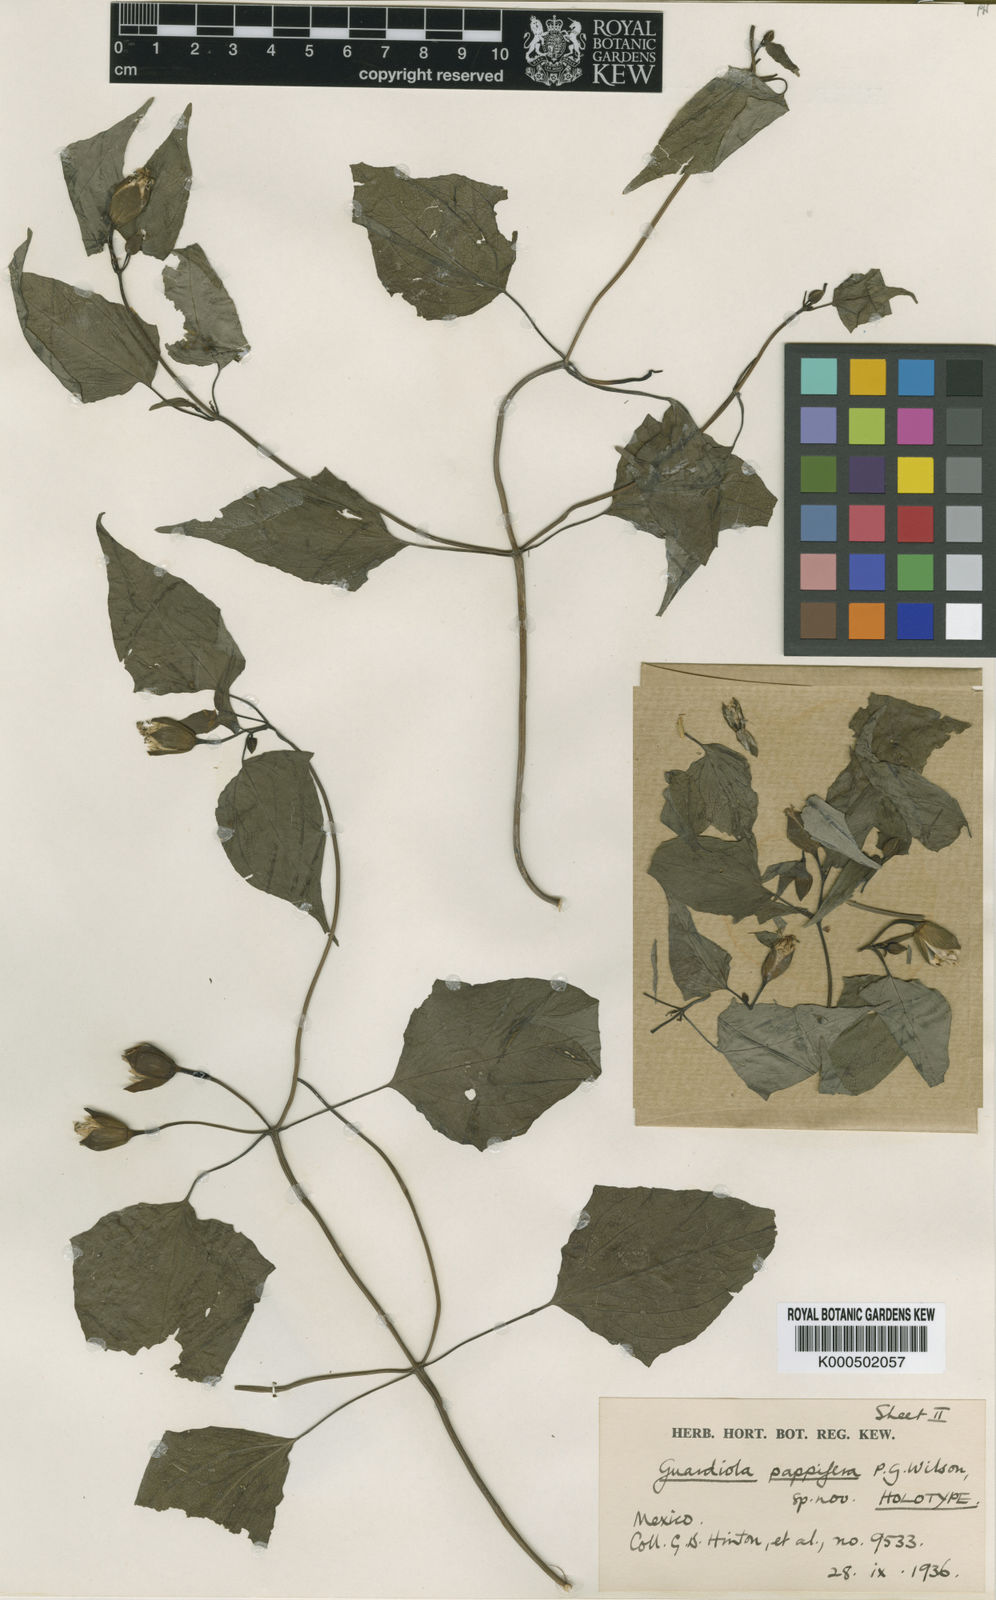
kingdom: Plantae
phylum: Tracheophyta
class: Magnoliopsida
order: Asterales
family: Asteraceae
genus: Guardiola
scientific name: Guardiola pappifera
